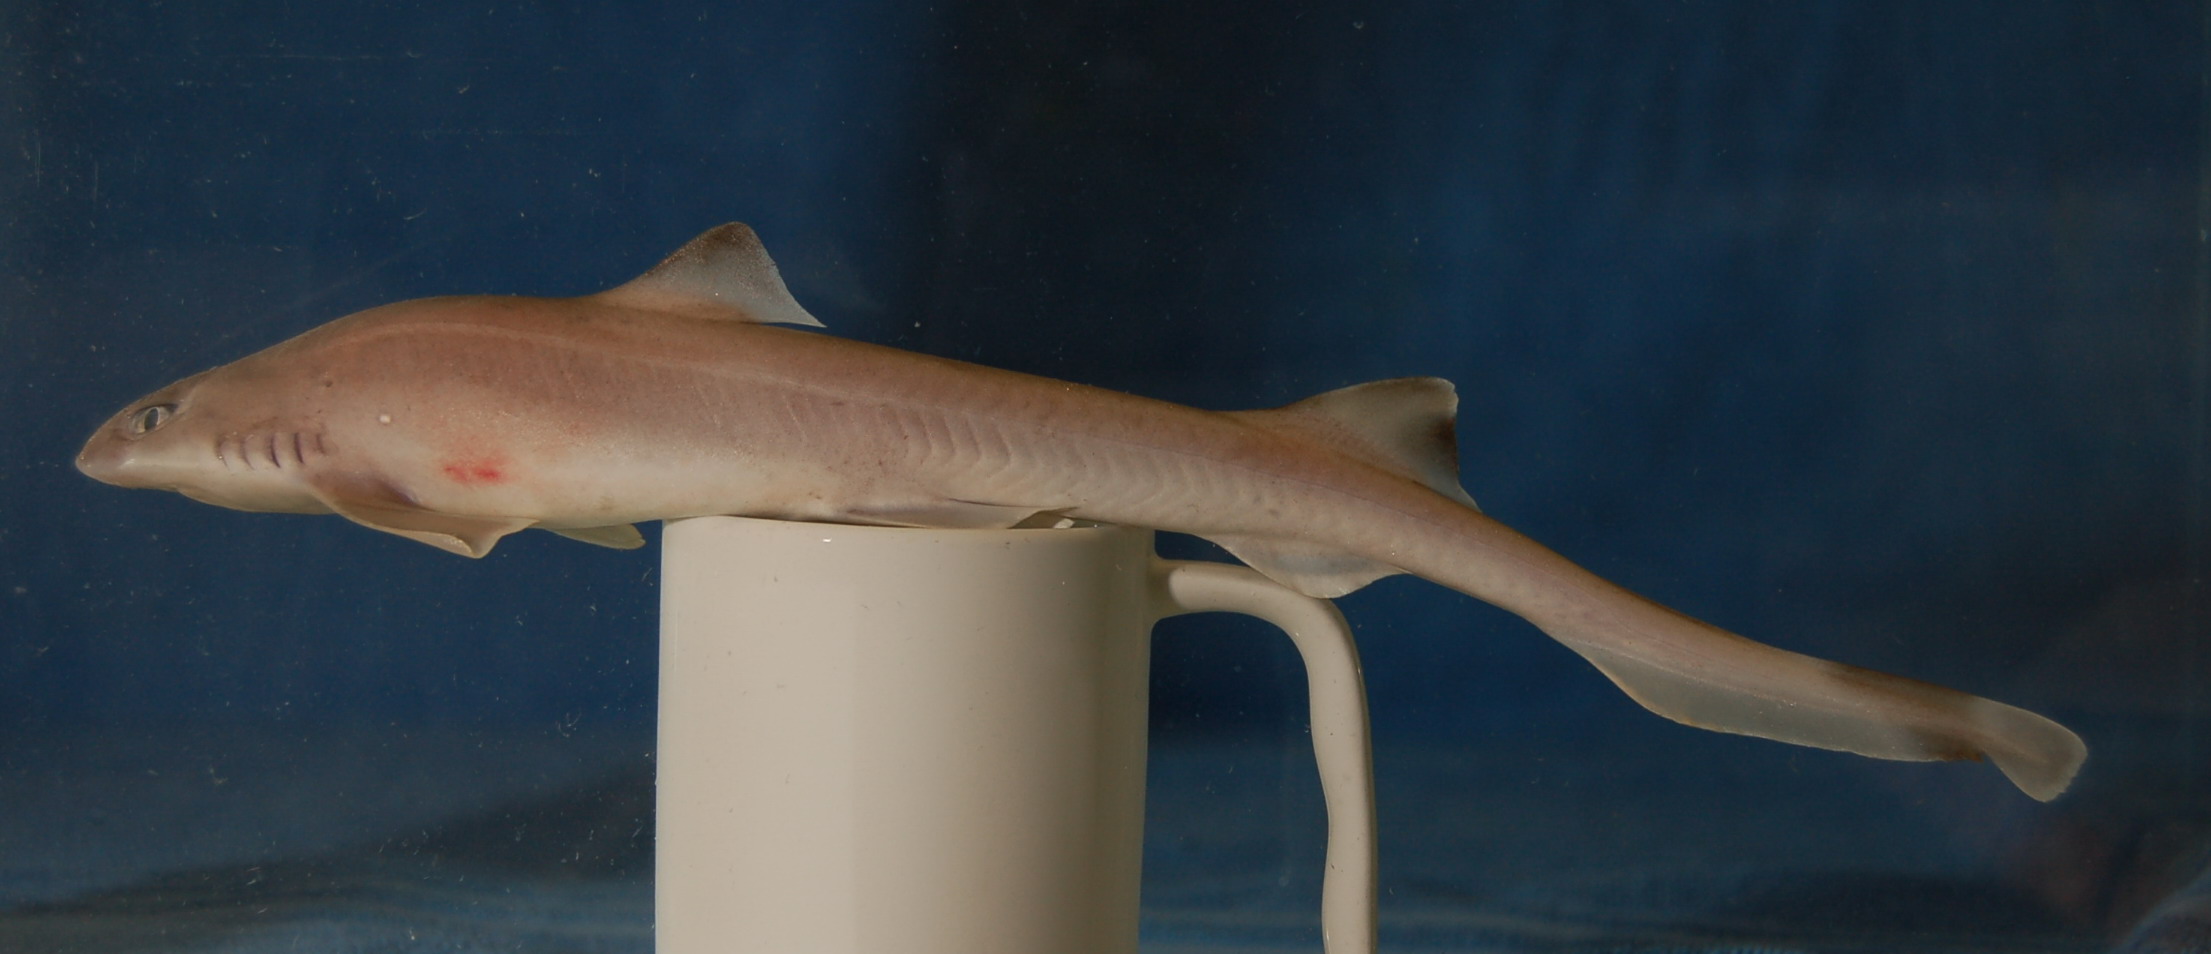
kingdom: Animalia
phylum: Chordata
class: Elasmobranchii
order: Carcharhiniformes
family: Proscylliidae
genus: Eridacnis
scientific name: Eridacnis
